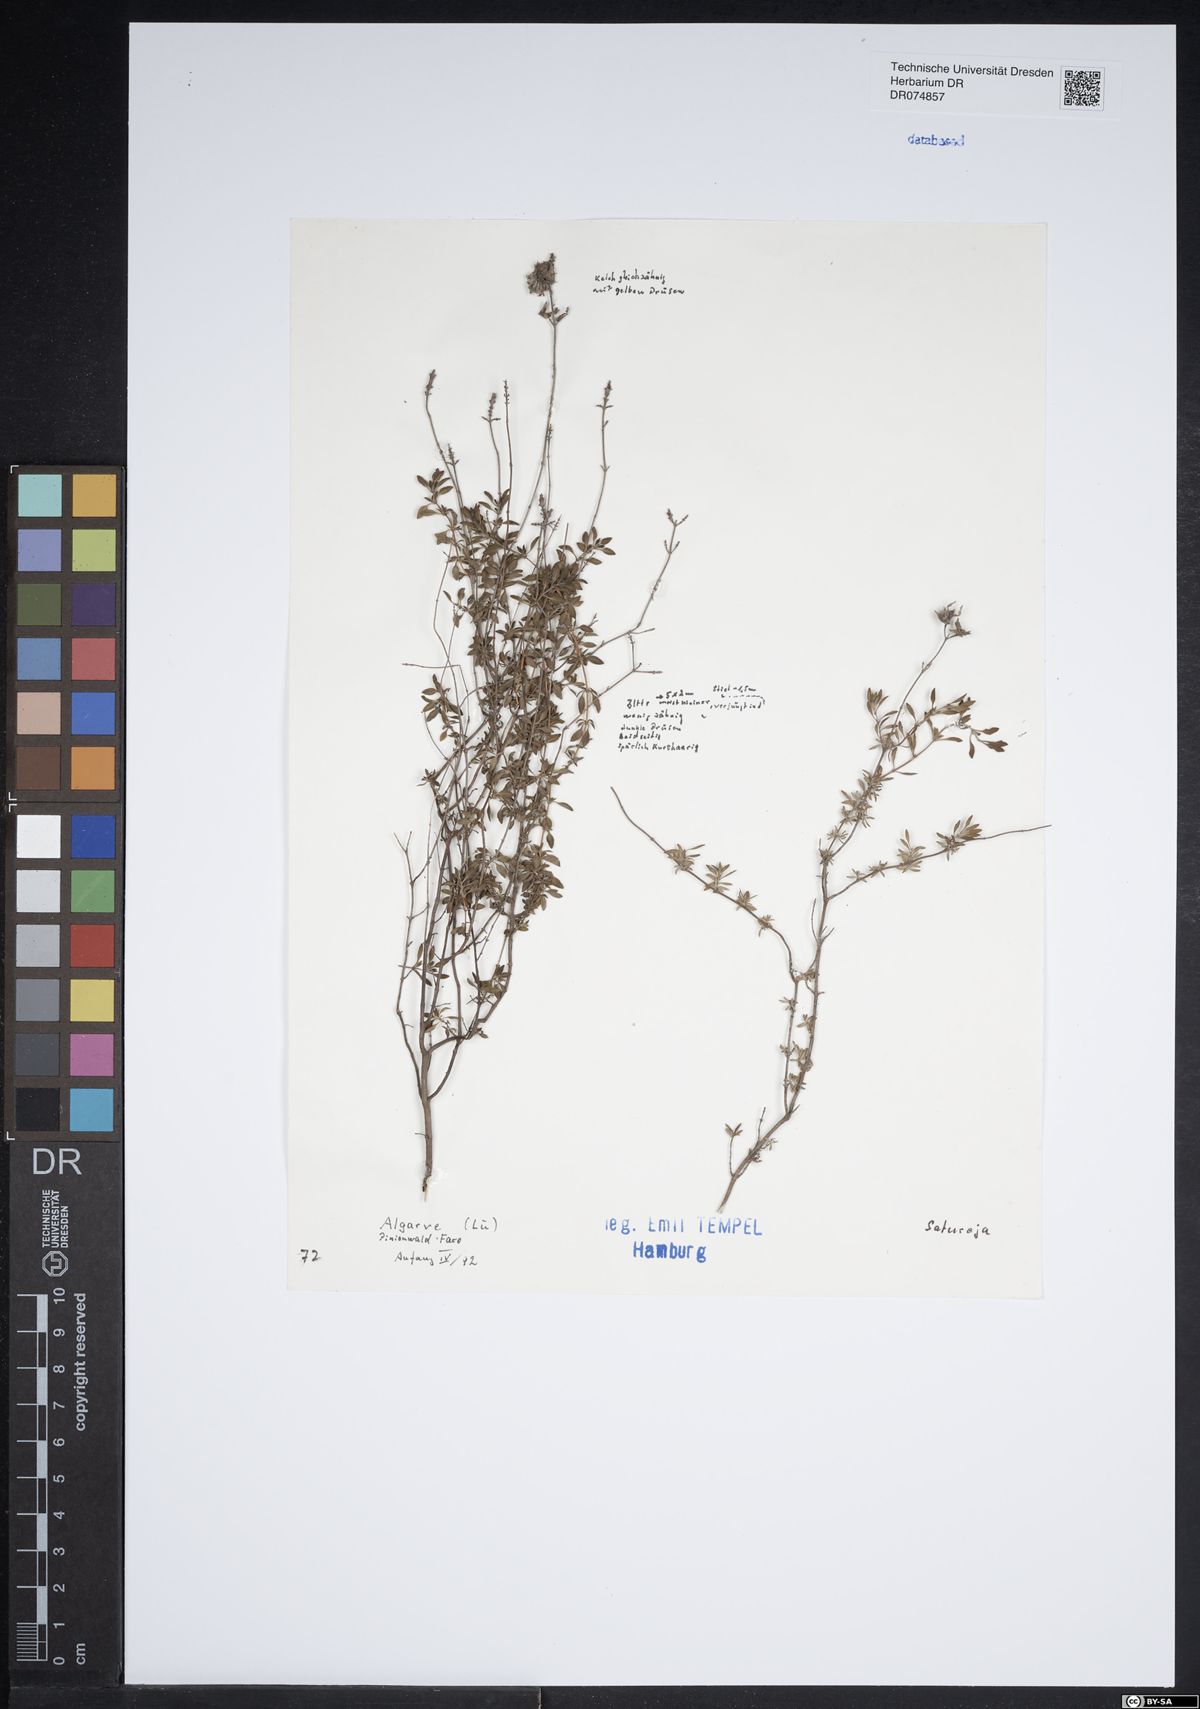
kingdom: Plantae
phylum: Tracheophyta
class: Magnoliopsida
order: Lamiales
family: Lamiaceae
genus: Satureja
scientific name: Satureja
